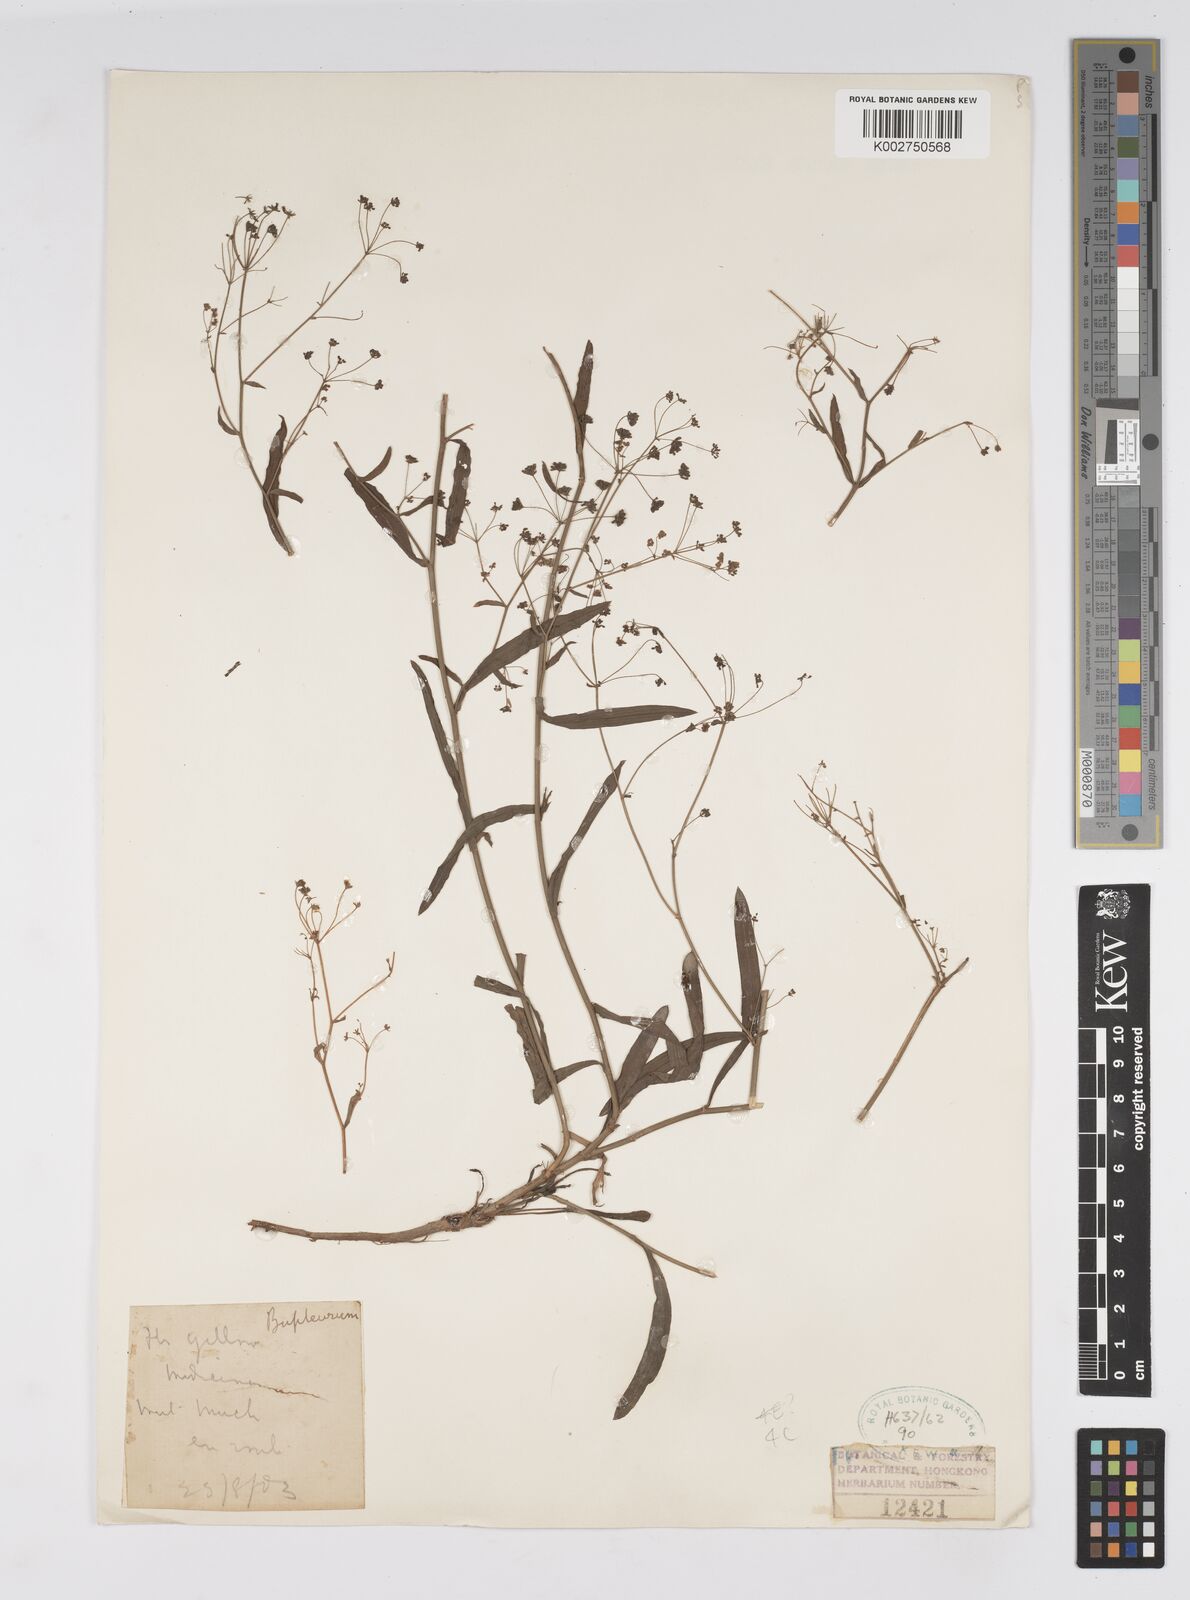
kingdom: Plantae
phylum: Tracheophyta
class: Magnoliopsida
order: Apiales
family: Apiaceae
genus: Bupleurum
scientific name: Bupleurum
